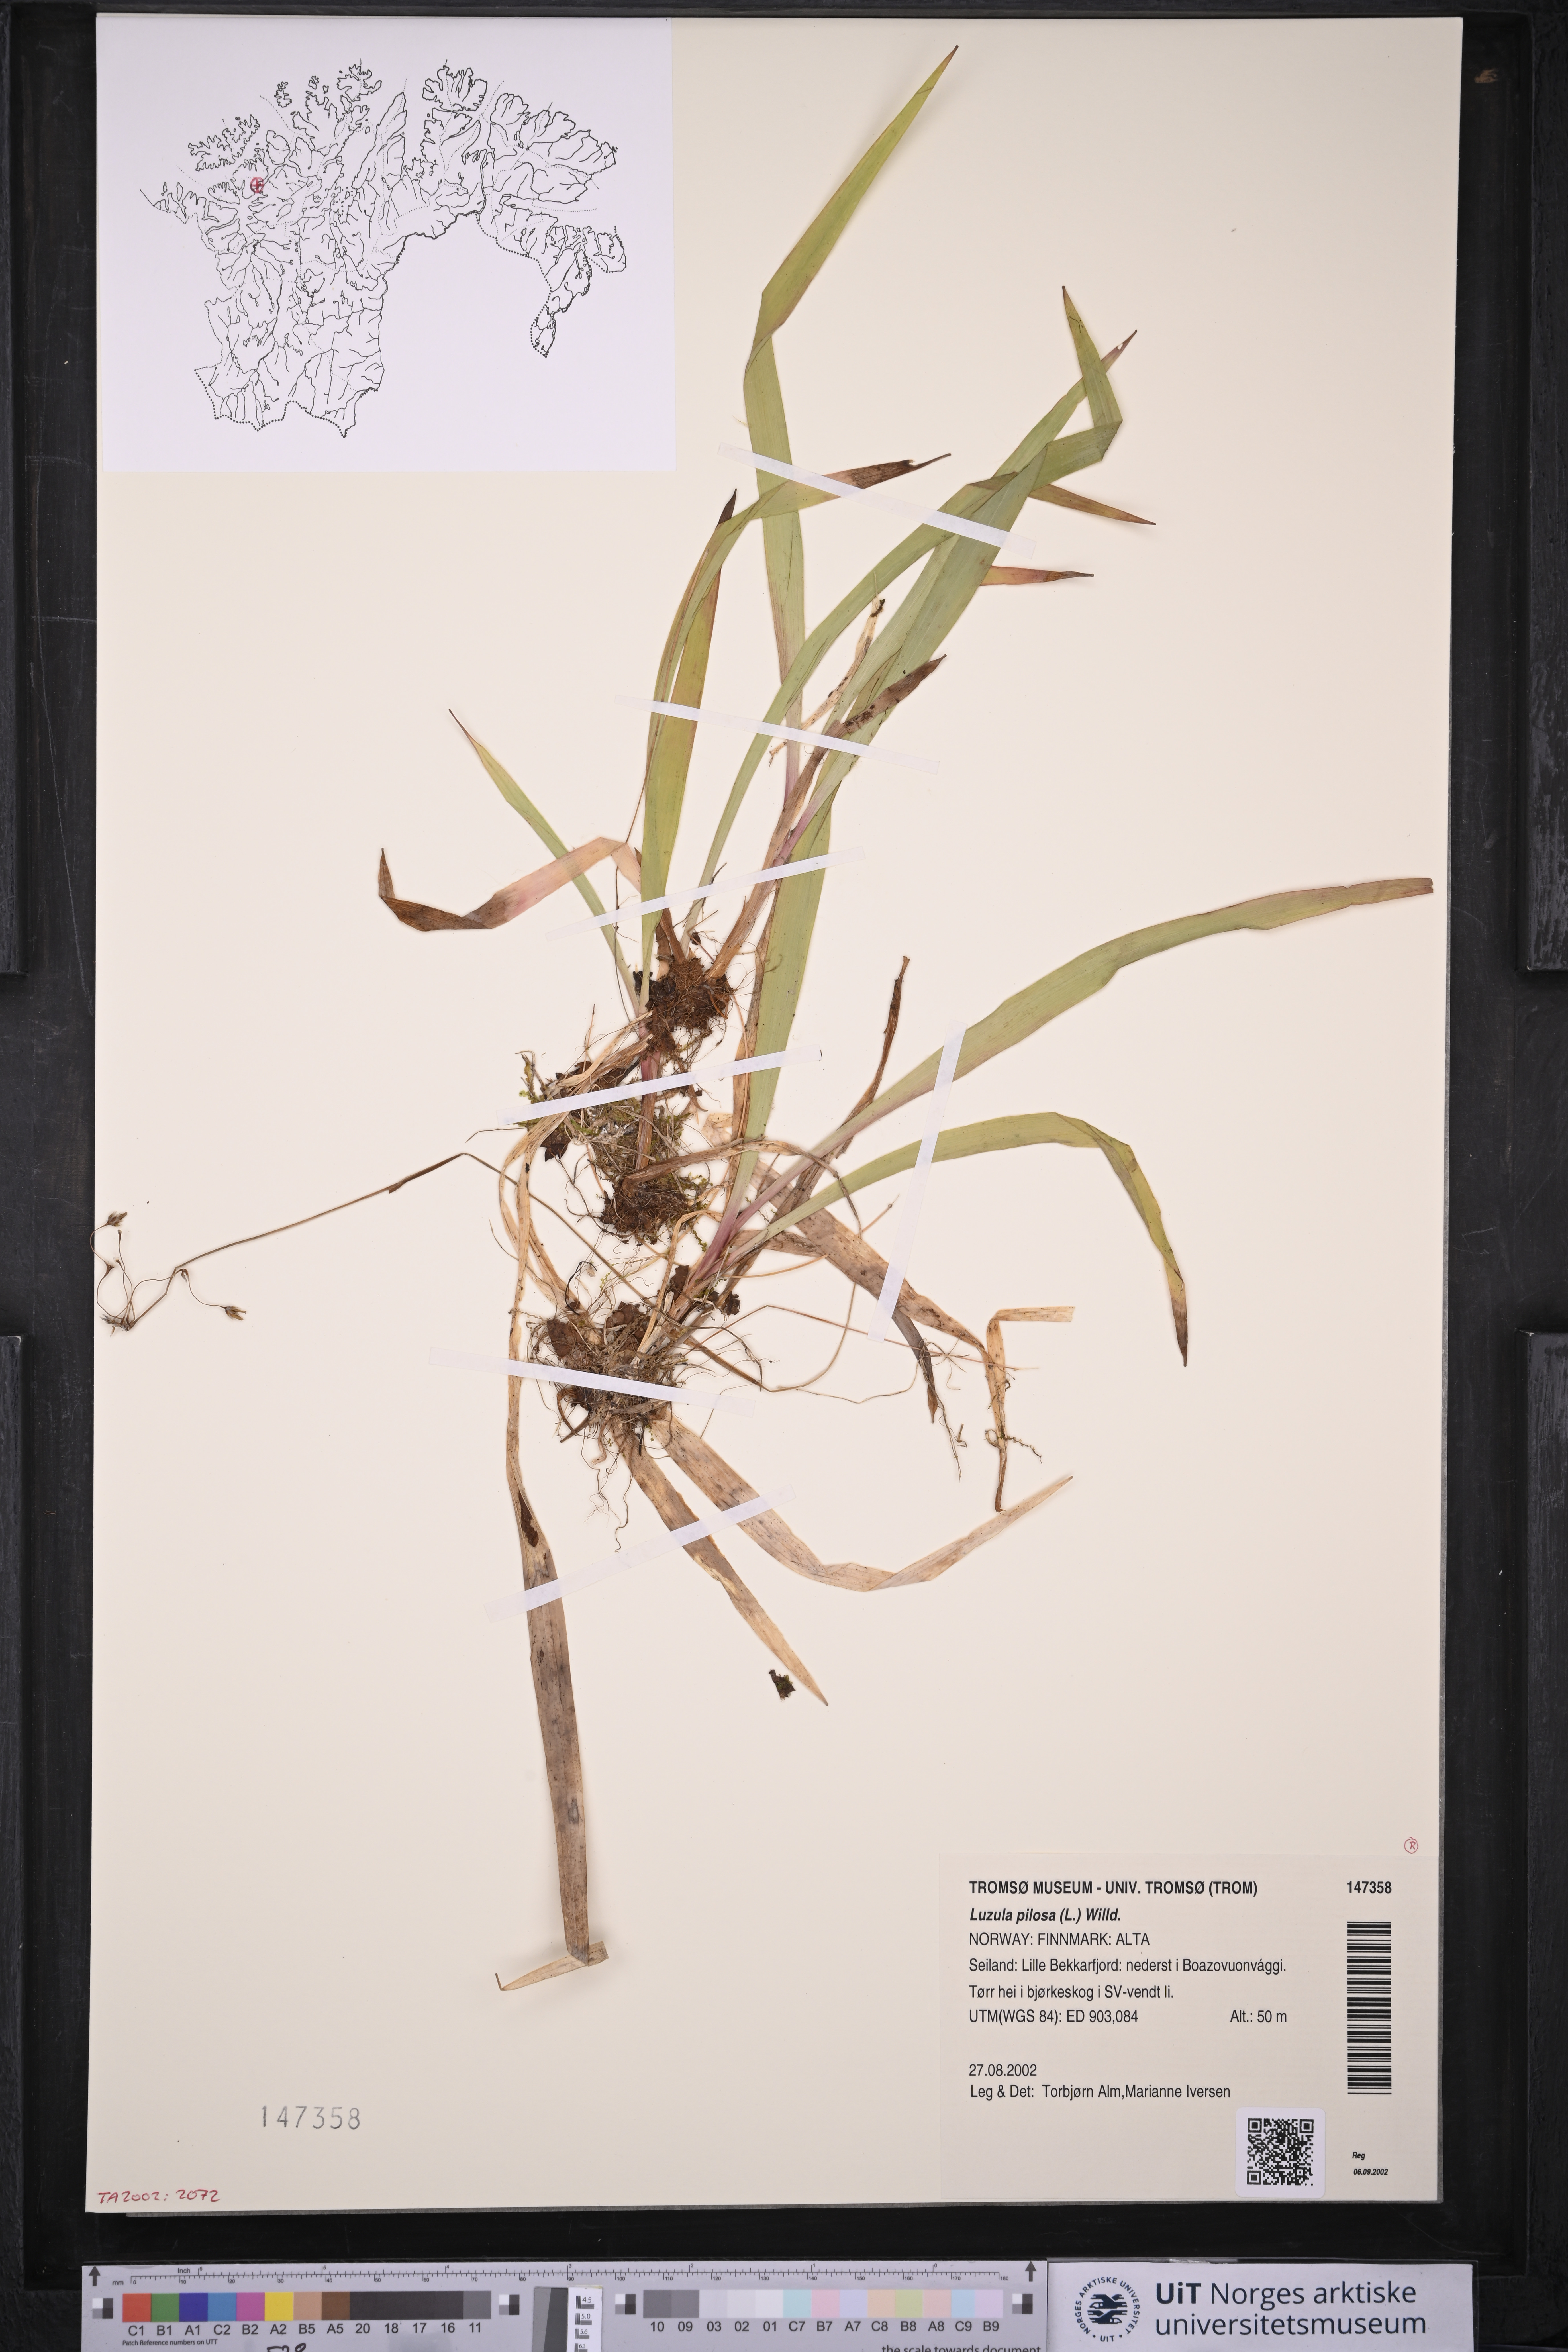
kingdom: Plantae
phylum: Tracheophyta
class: Liliopsida
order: Poales
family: Juncaceae
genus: Luzula
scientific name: Luzula pilosa
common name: Hairy wood-rush
